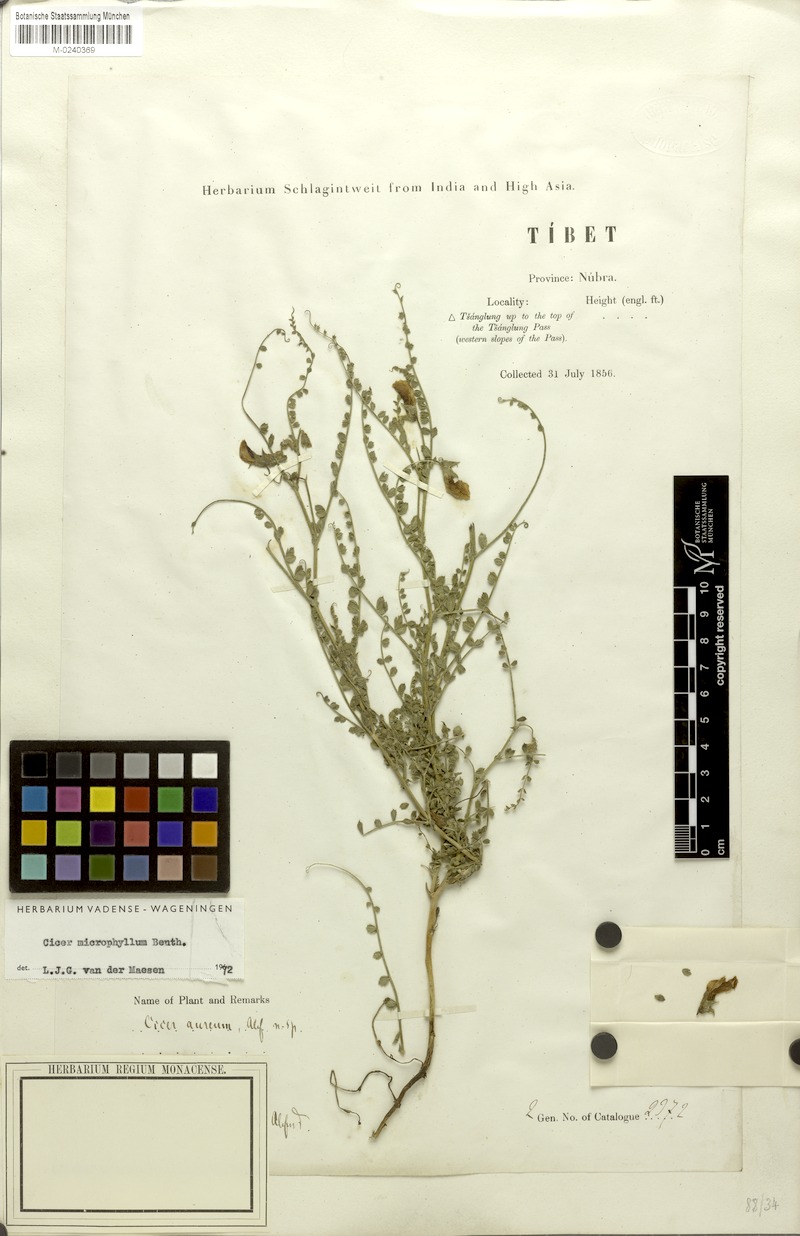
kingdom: Plantae
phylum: Tracheophyta
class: Magnoliopsida
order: Fabales
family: Fabaceae
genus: Cicer
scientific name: Cicer microphyllum
